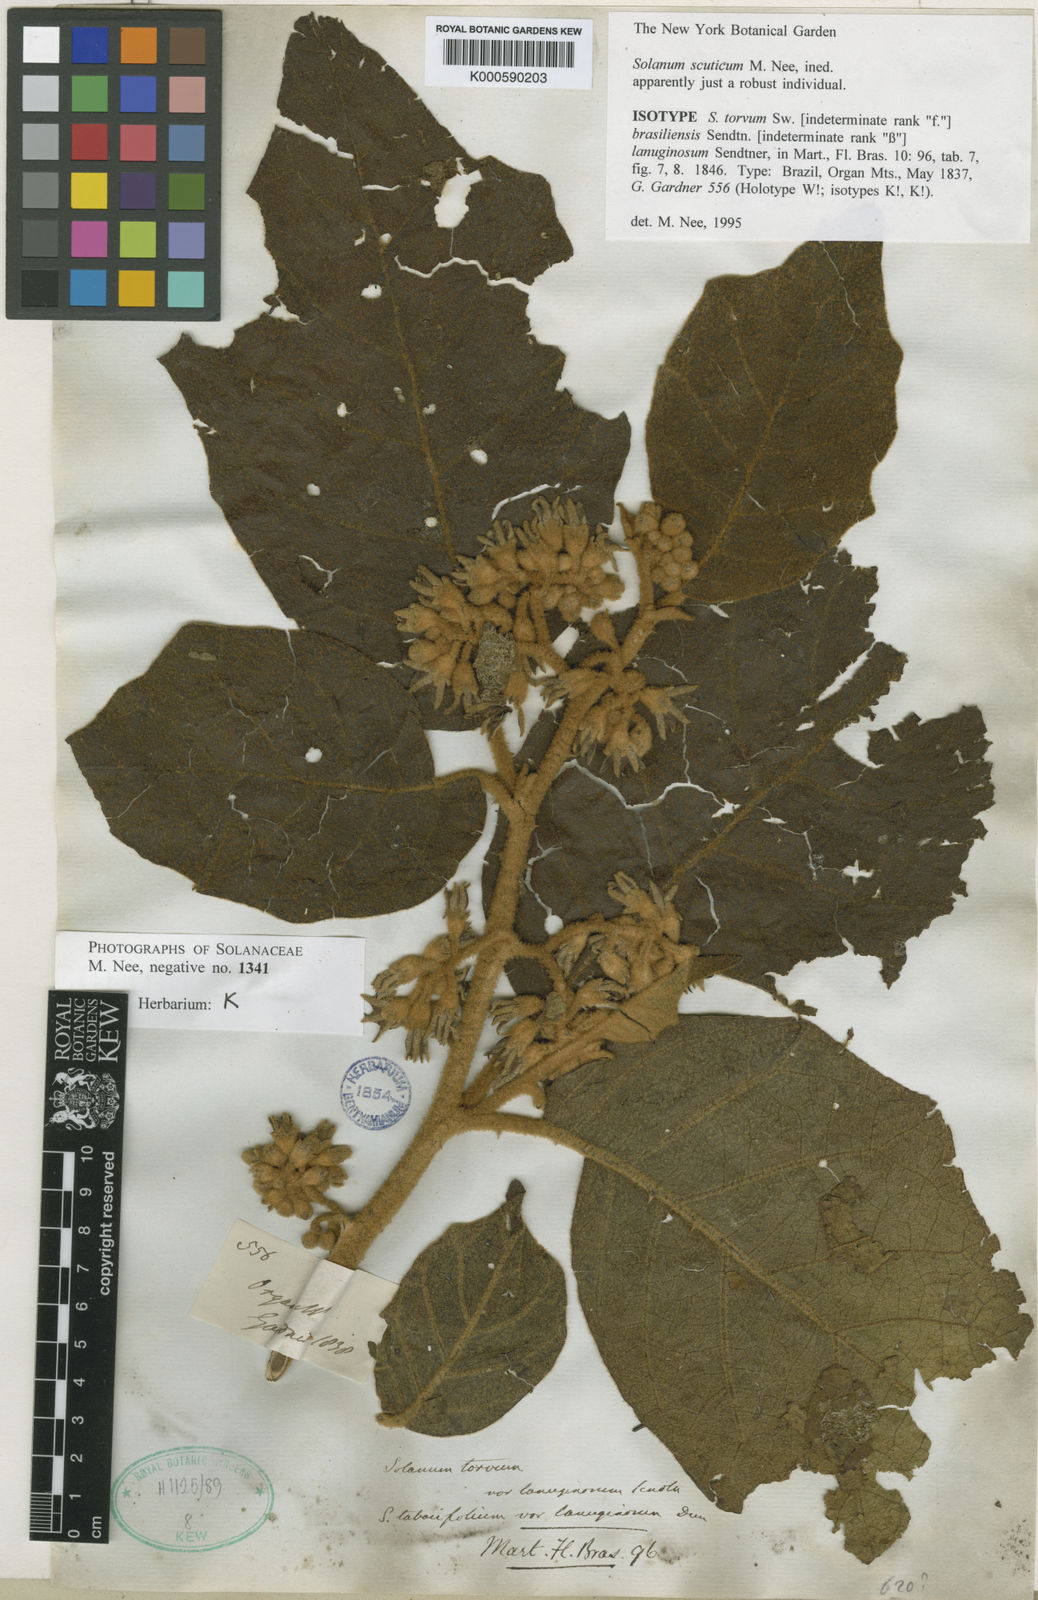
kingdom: Plantae
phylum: Tracheophyta
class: Magnoliopsida
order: Solanales
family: Solanaceae
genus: Solanum
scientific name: Solanum scuticum
